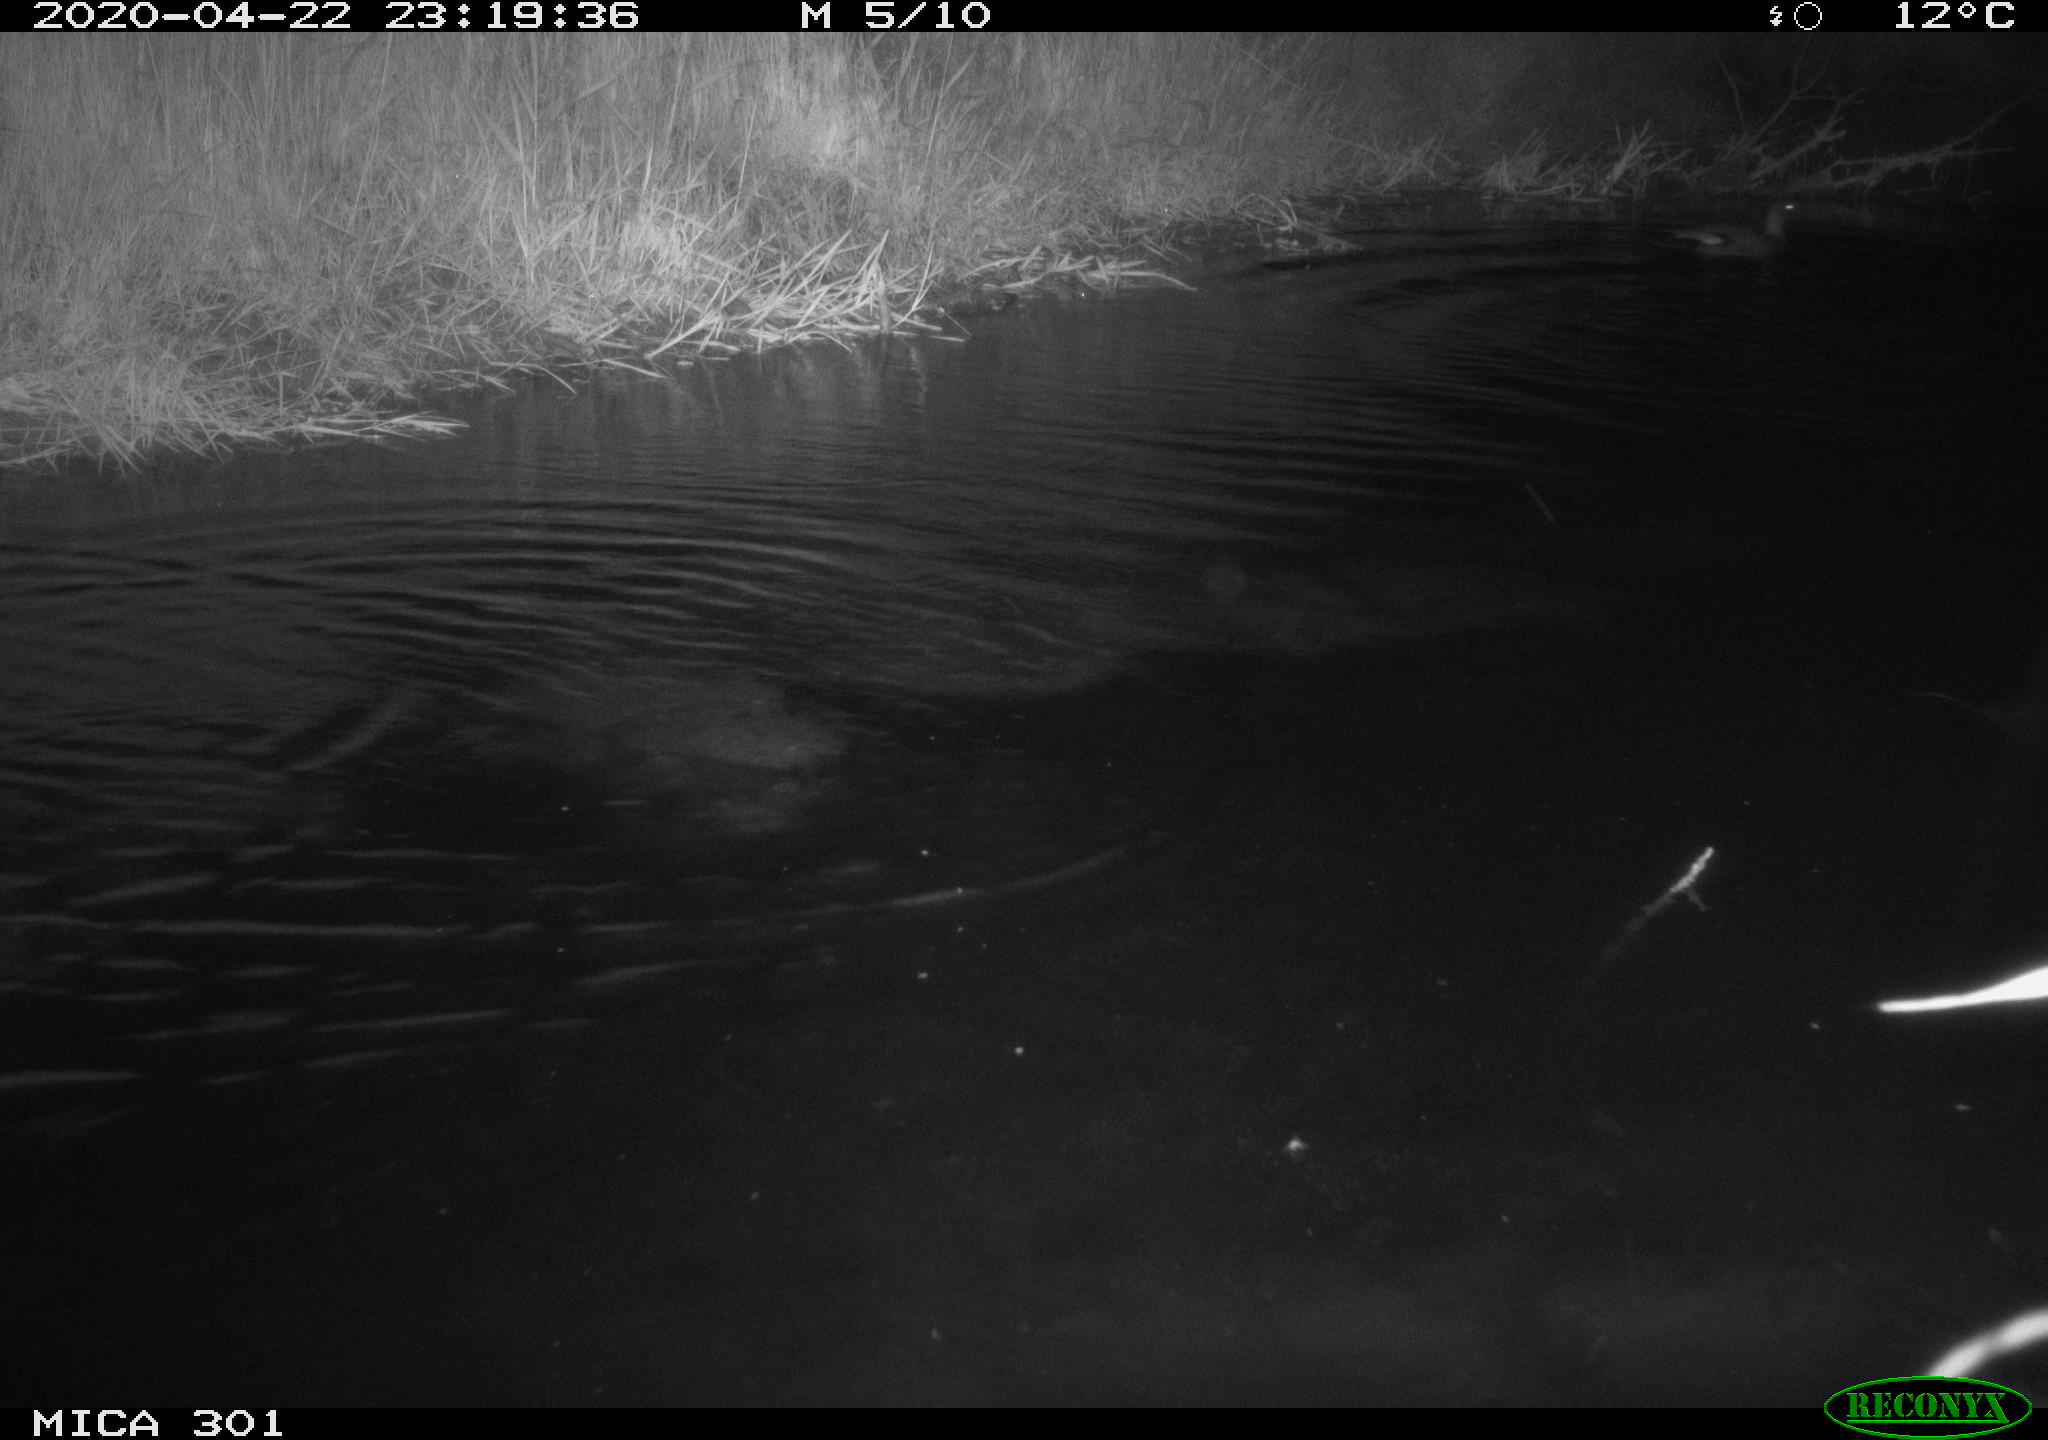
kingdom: Animalia
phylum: Chordata
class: Aves
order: Suliformes
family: Phalacrocoracidae
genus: Phalacrocorax
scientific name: Phalacrocorax carbo
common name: Great cormorant
